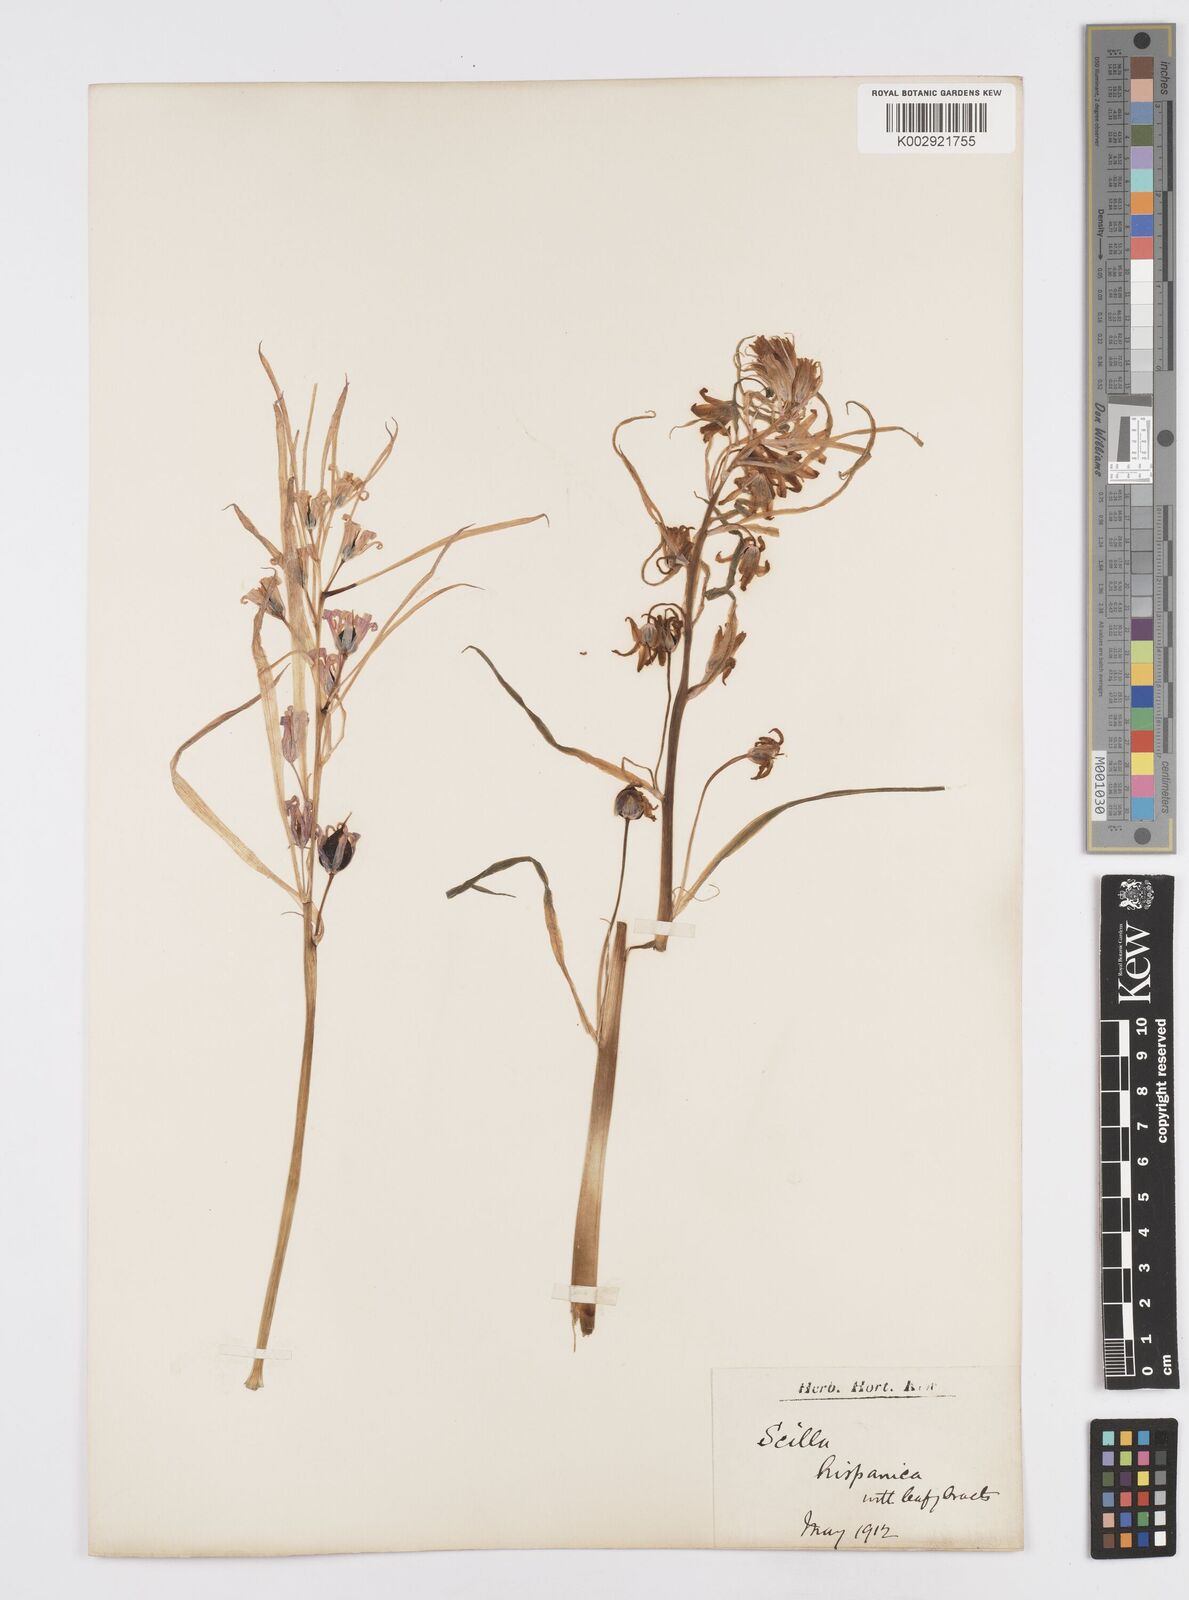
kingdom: Plantae
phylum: Tracheophyta
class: Liliopsida
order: Asparagales
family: Asparagaceae
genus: Hyacinthoides
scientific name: Hyacinthoides hispanica
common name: Spanish bluebell
